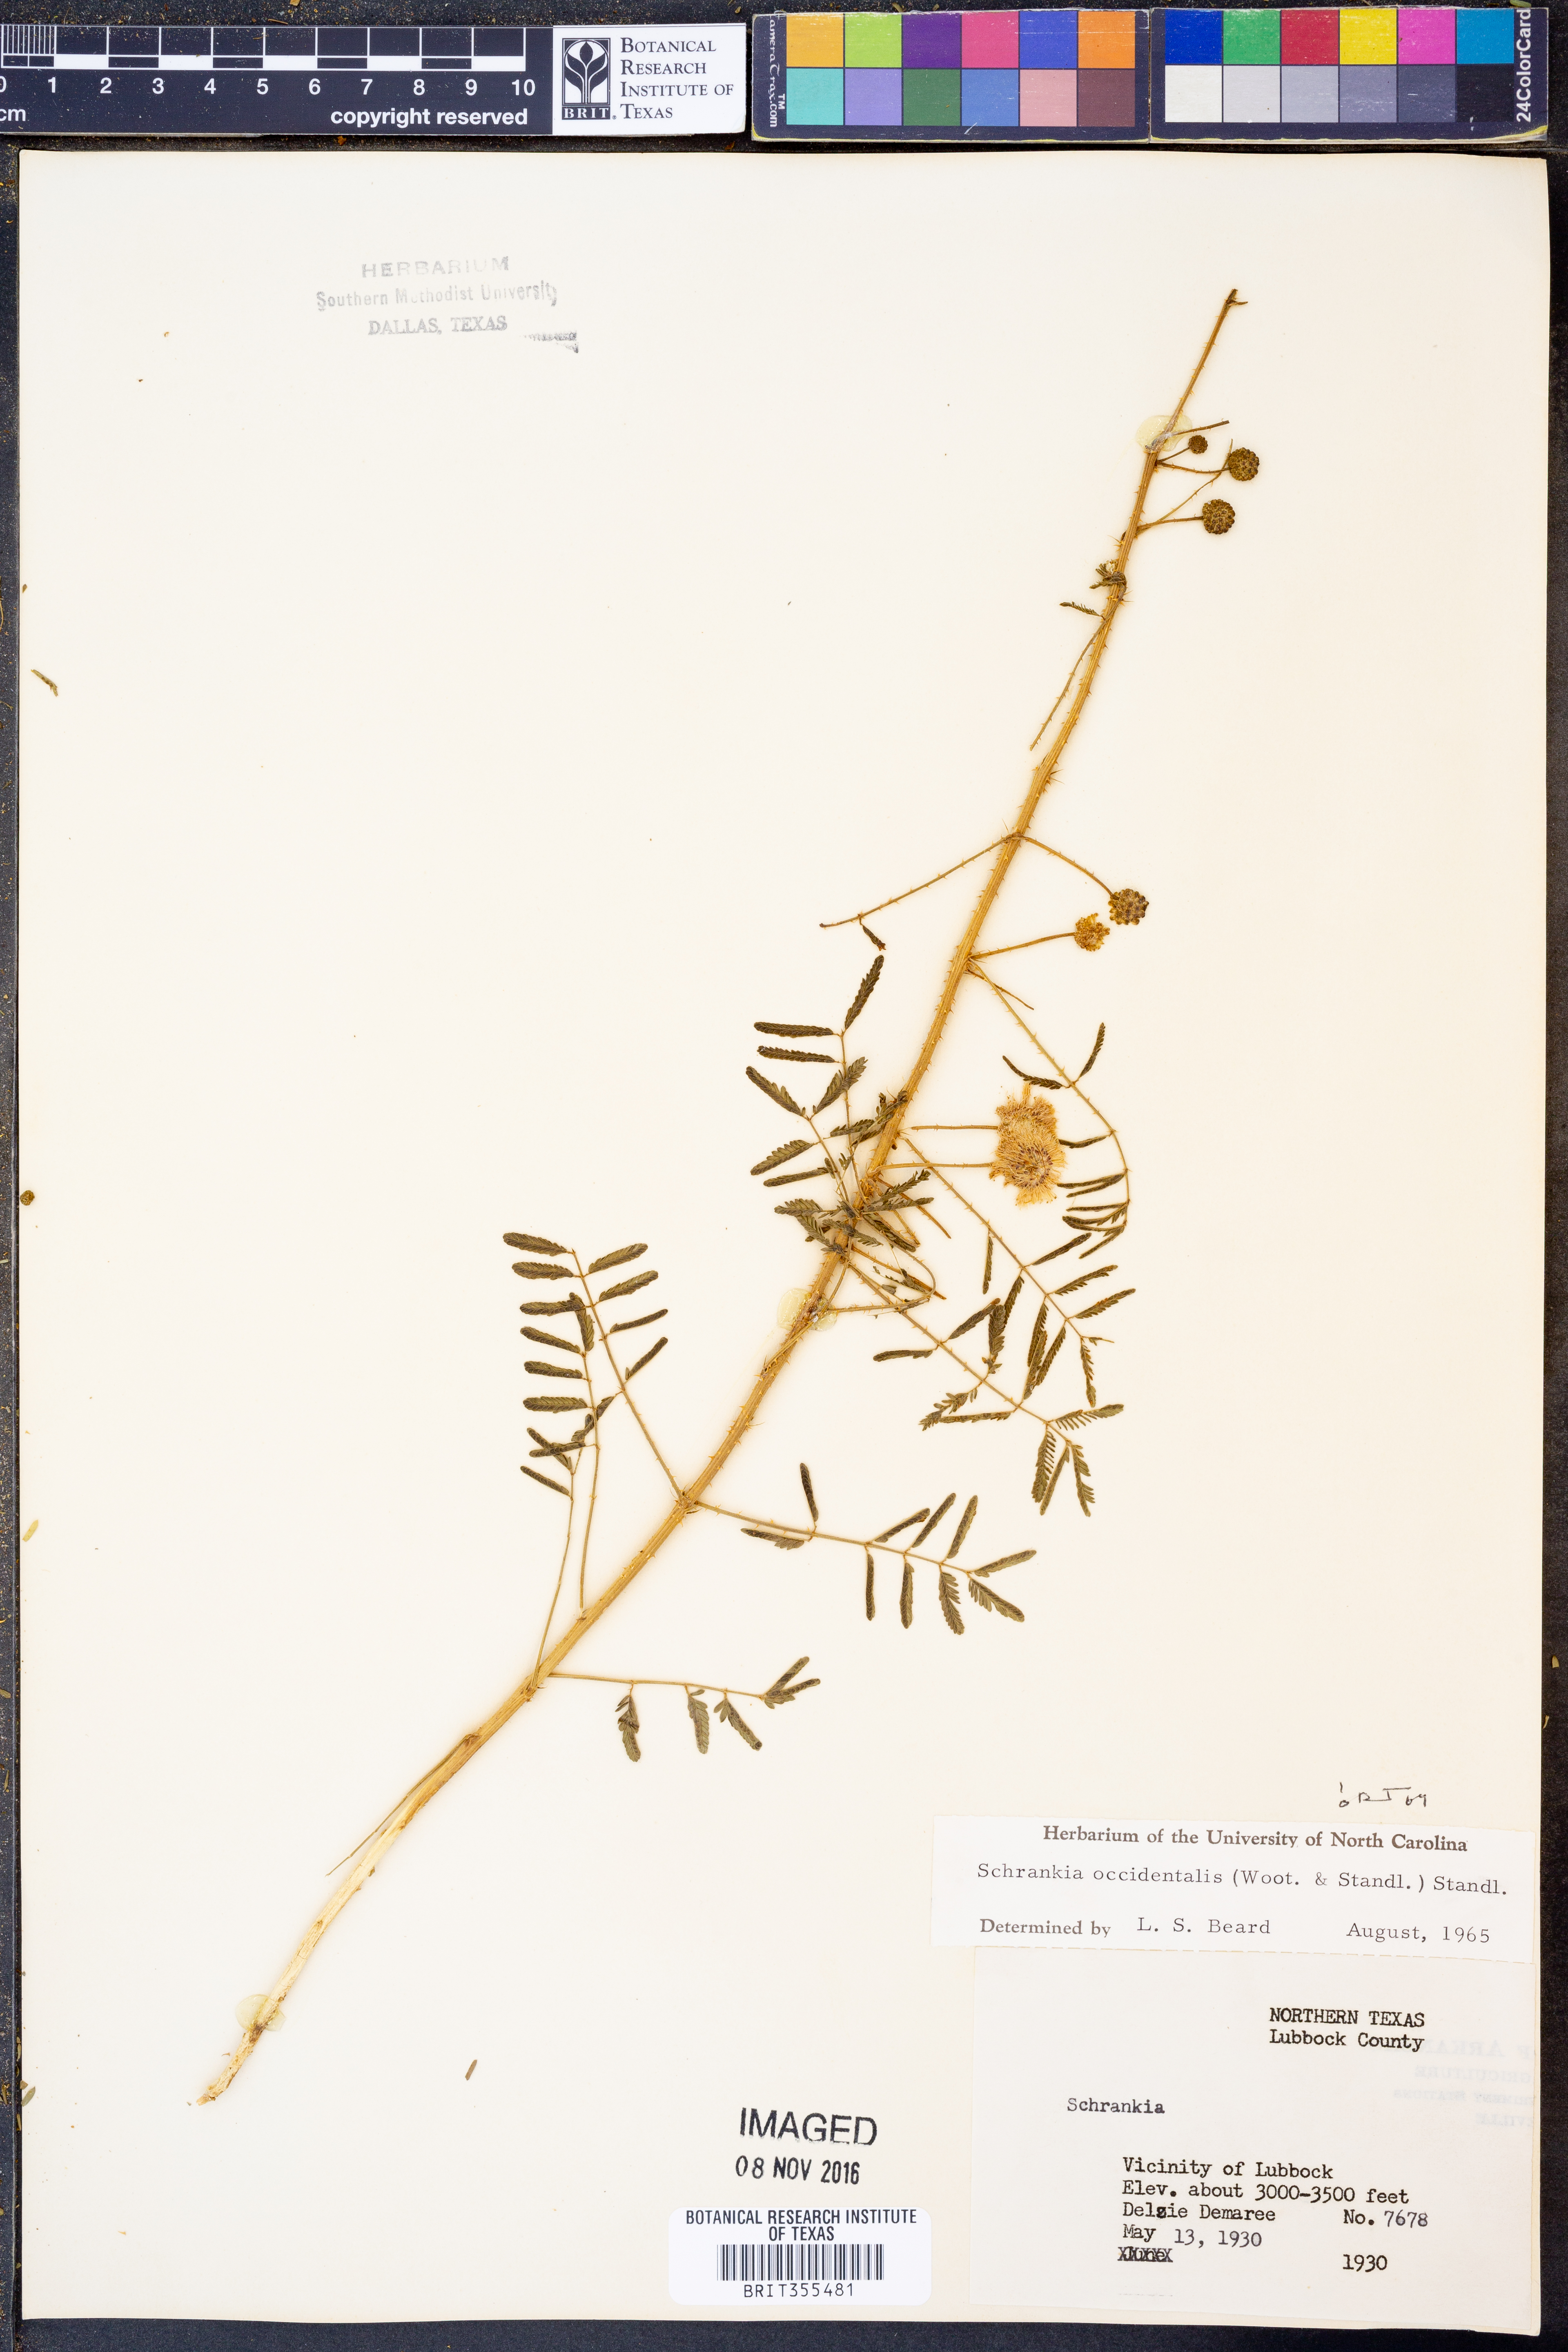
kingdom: Plantae
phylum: Tracheophyta
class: Magnoliopsida
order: Fabales
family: Fabaceae
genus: Mimosa
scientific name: Mimosa quadrivalvis
